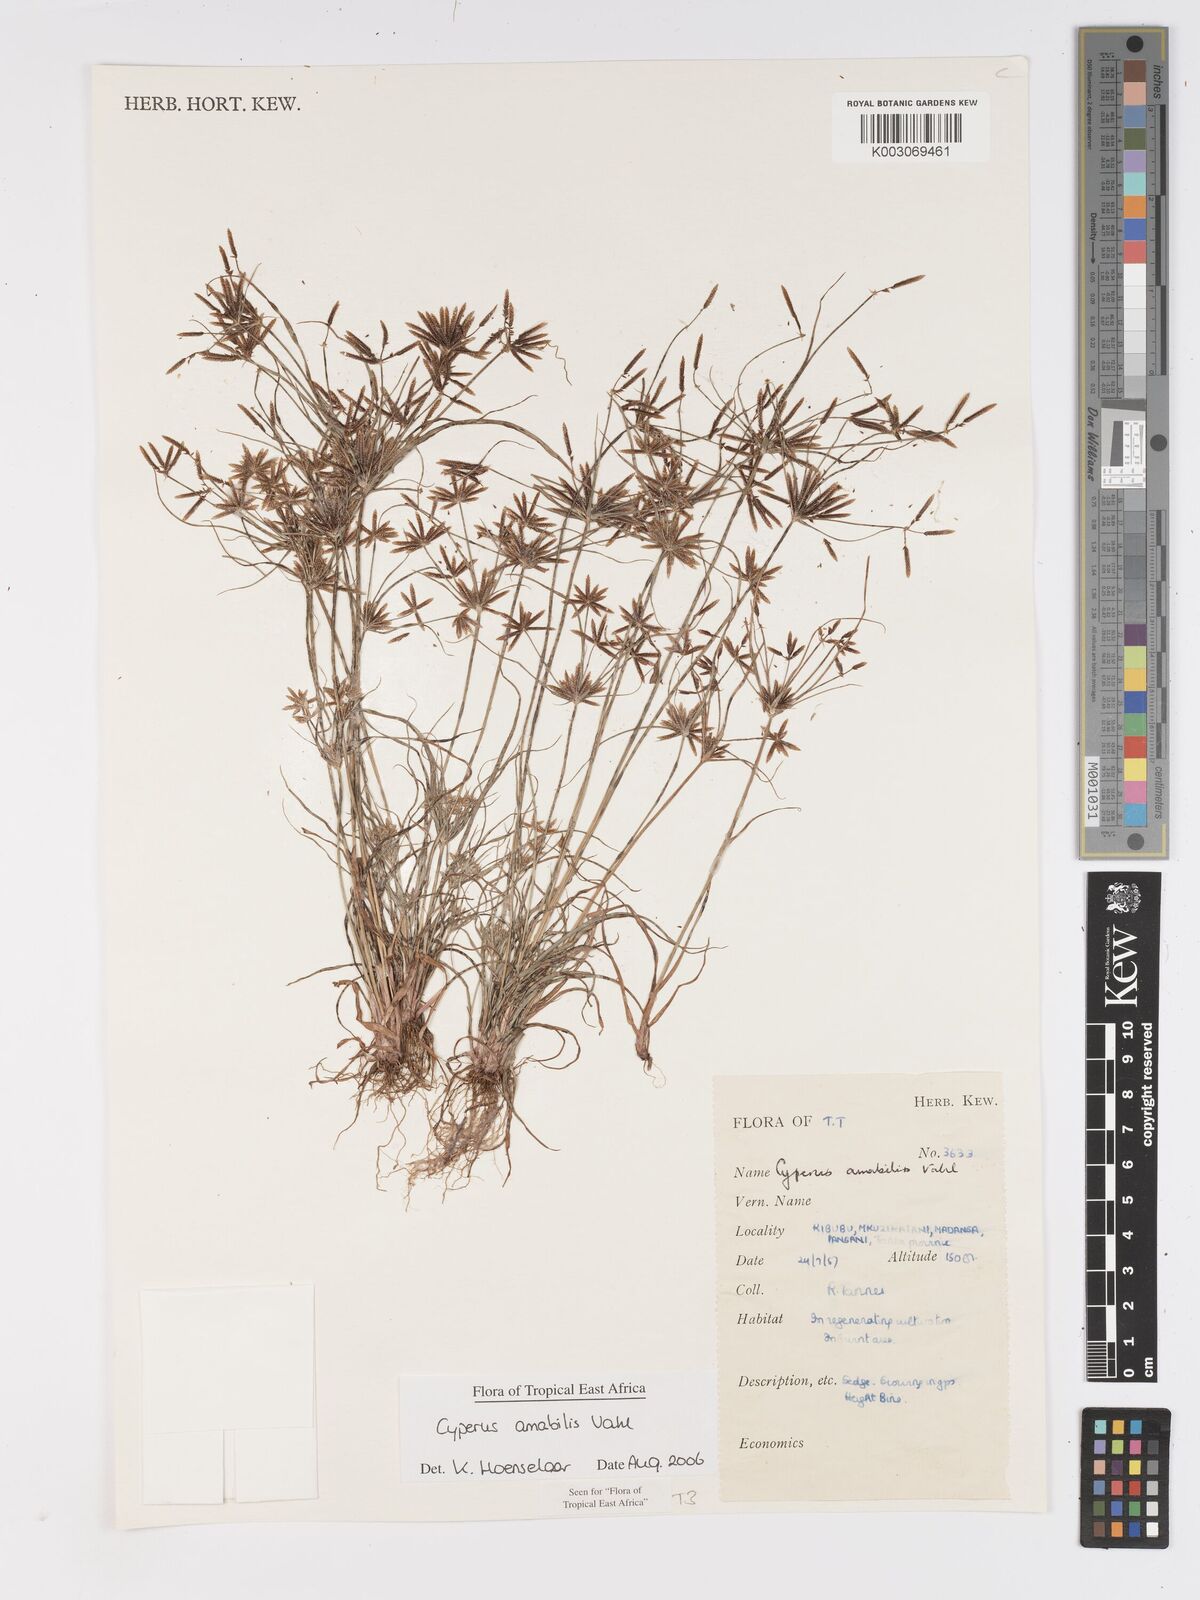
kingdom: Plantae
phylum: Tracheophyta
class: Liliopsida
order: Poales
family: Cyperaceae
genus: Cyperus
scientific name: Cyperus amabilis
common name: Foothill flat sedge
